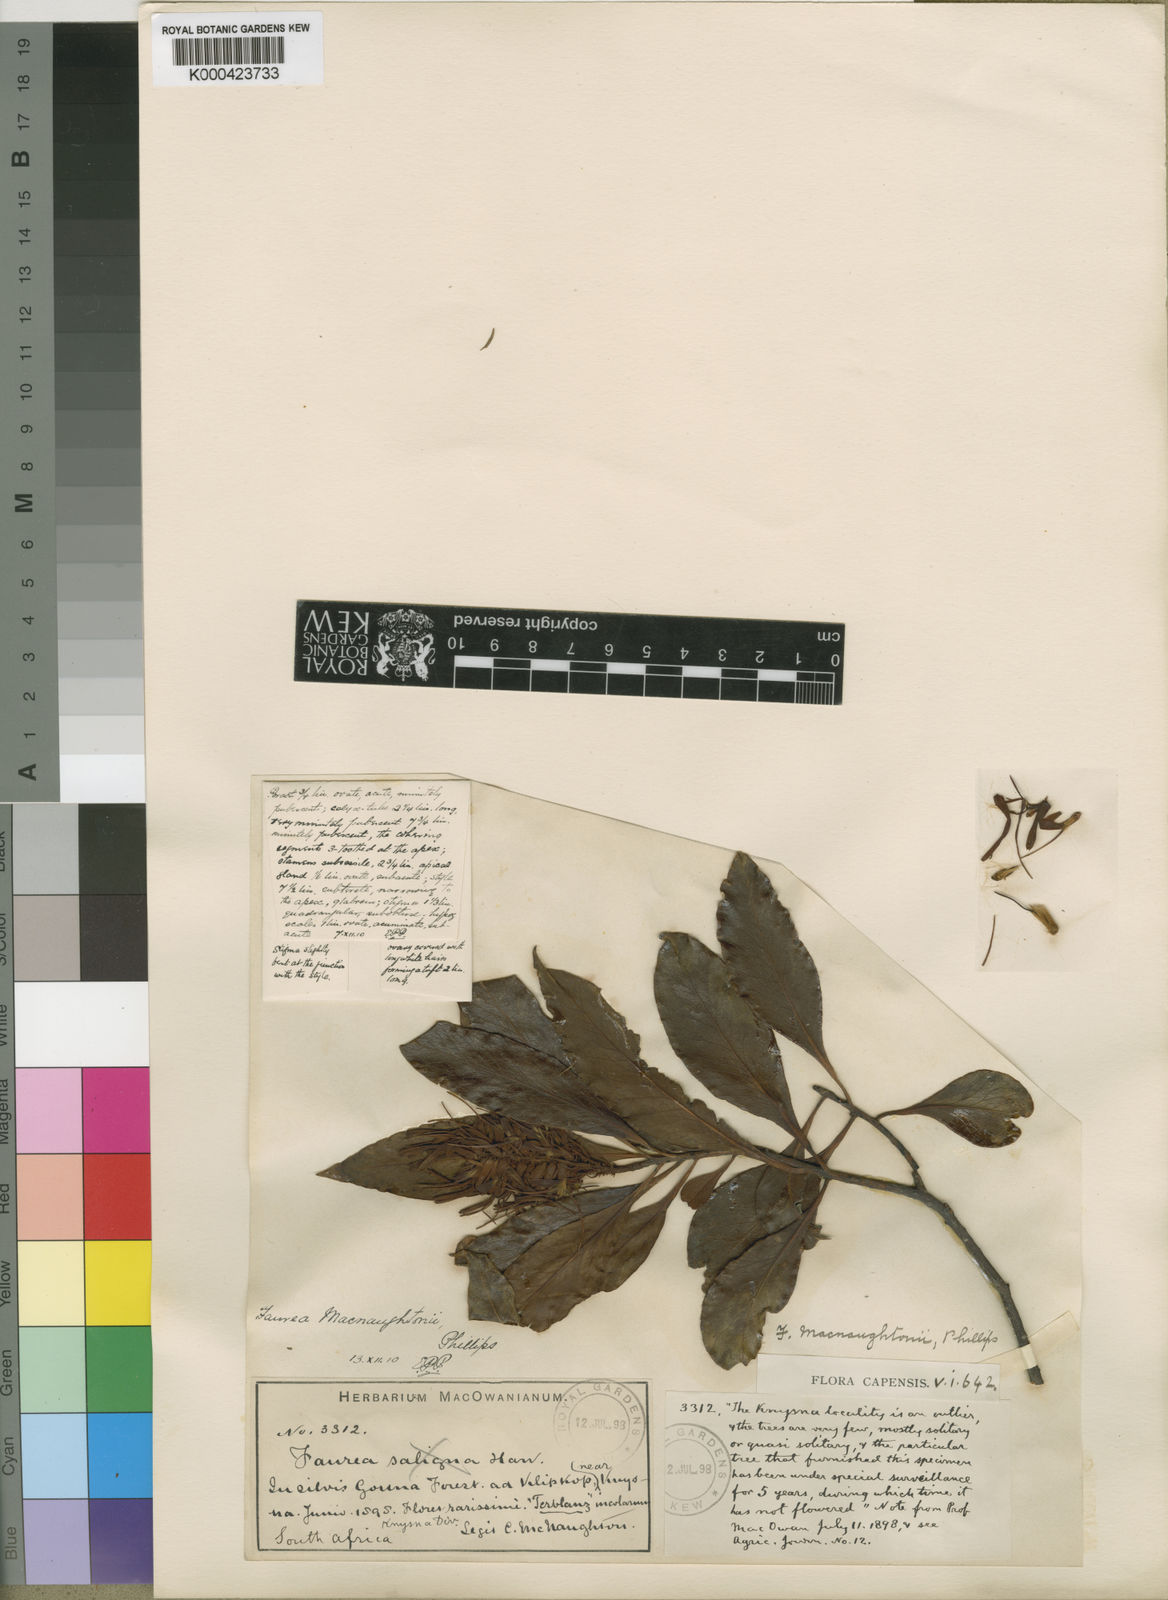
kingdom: Plantae
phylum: Tracheophyta
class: Magnoliopsida
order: Proteales
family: Proteaceae
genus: Faurea
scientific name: Faurea macnaughtonii
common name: Egossa beech
